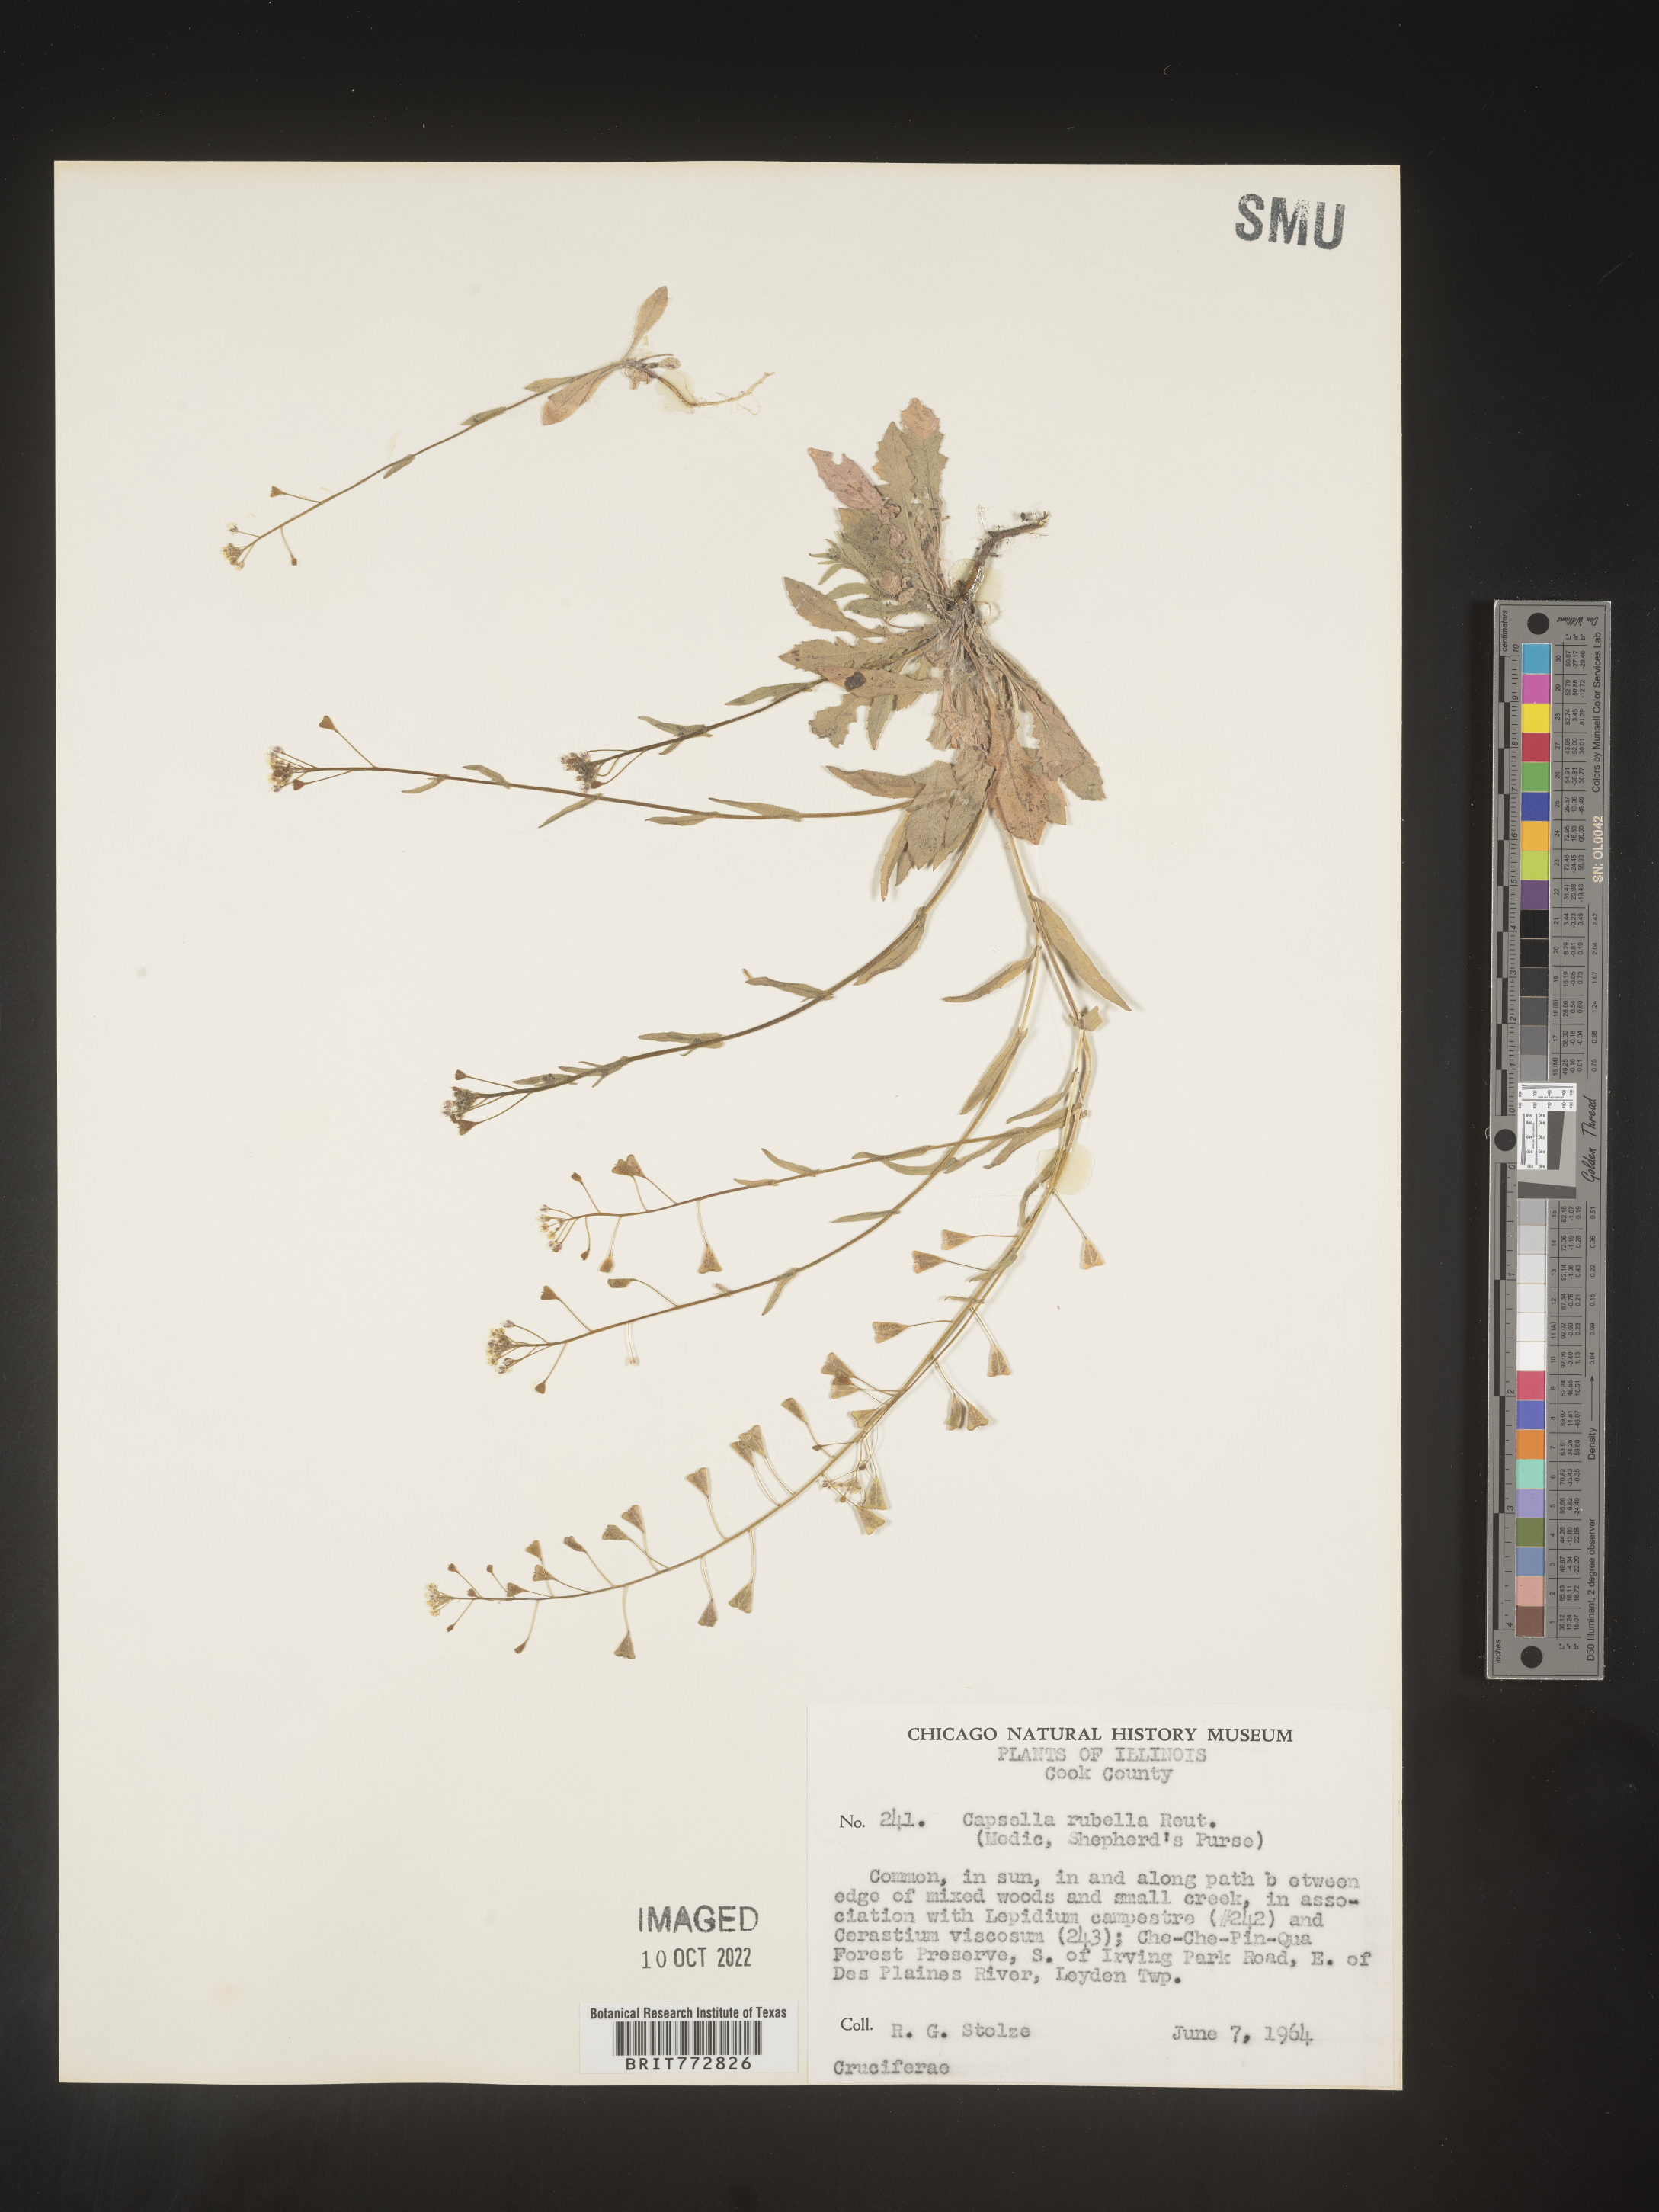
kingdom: Plantae
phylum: Tracheophyta
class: Magnoliopsida
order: Brassicales
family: Brassicaceae
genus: Capsella
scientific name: Capsella bursa-pastoris
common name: Shepherd's purse
